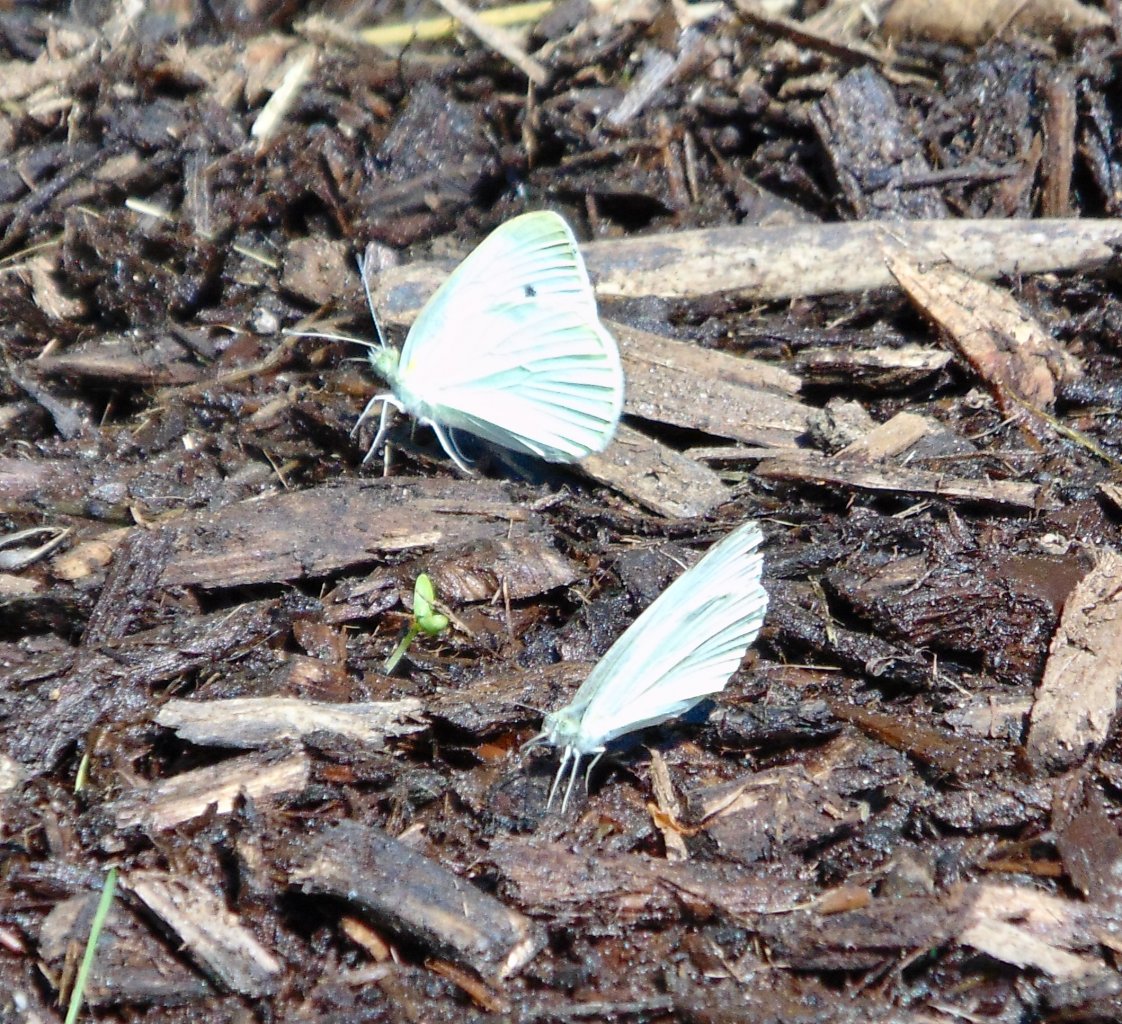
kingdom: Animalia
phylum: Arthropoda
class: Insecta
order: Lepidoptera
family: Pieridae
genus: Pieris
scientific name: Pieris rapae
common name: Cabbage White
